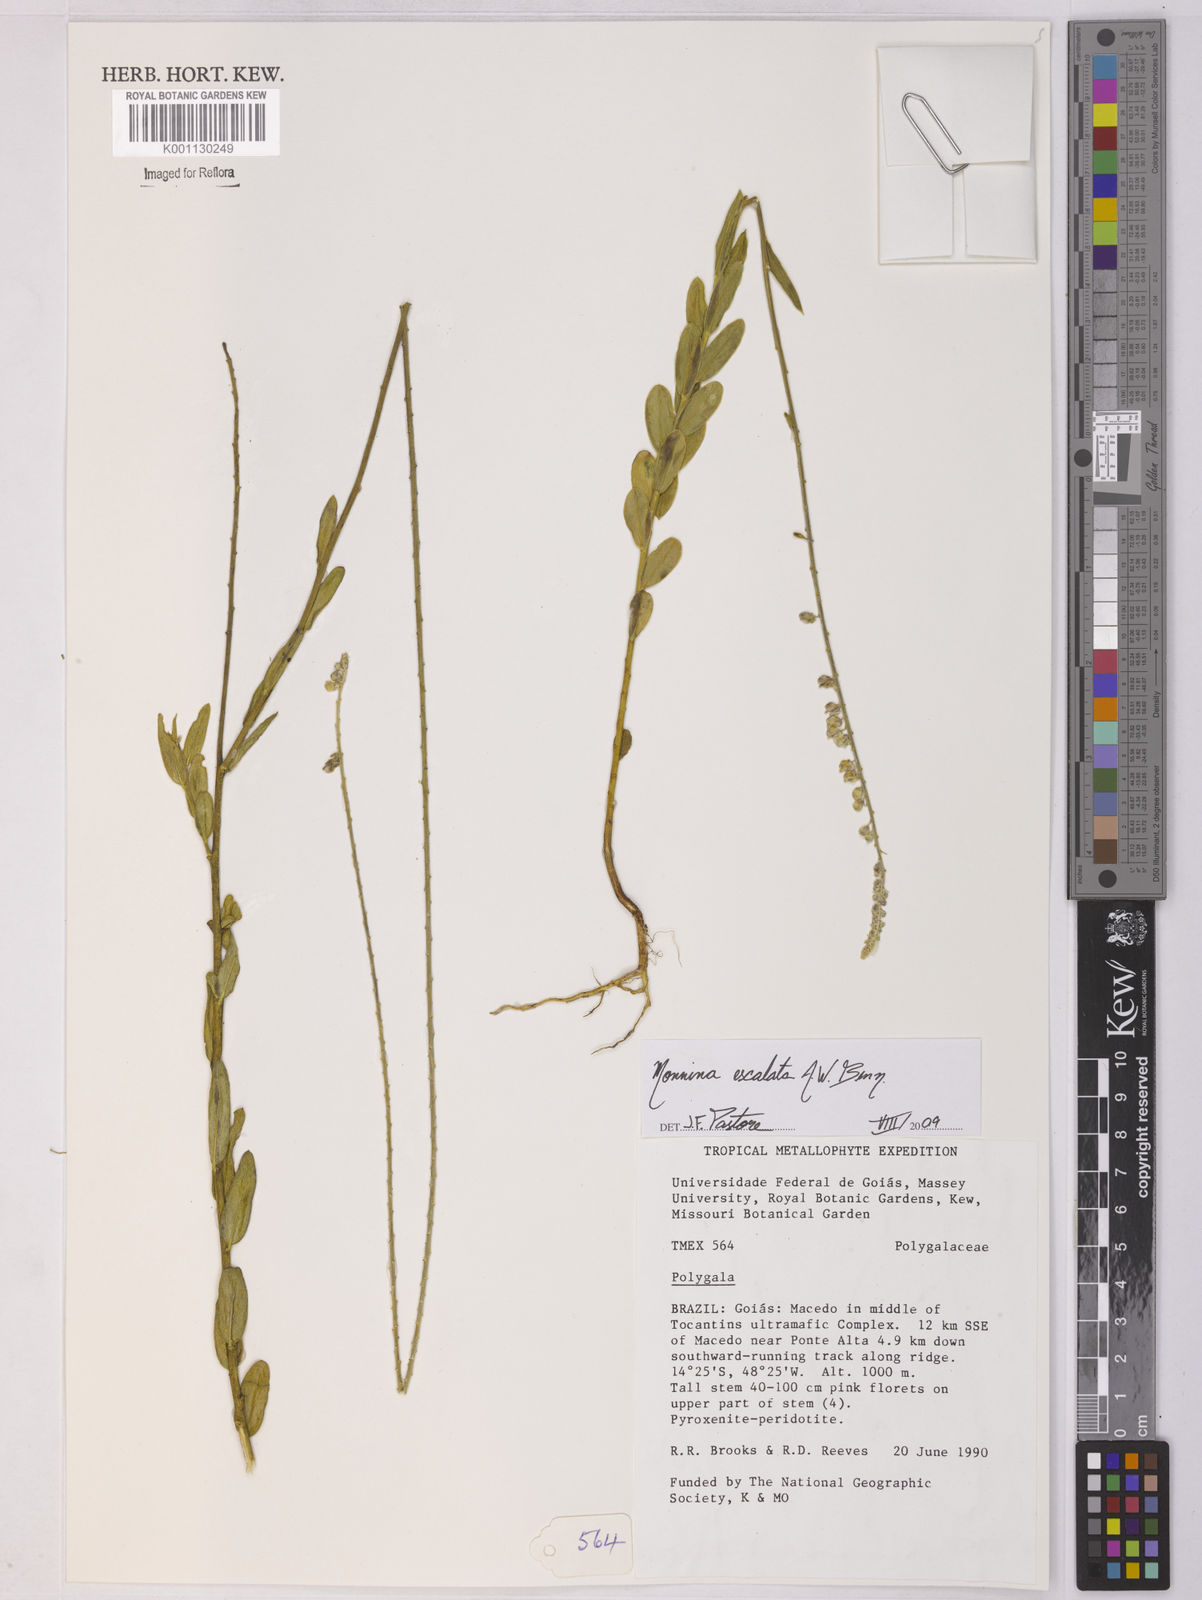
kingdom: Plantae
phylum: Tracheophyta
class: Magnoliopsida
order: Fabales
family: Polygalaceae
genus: Monnina
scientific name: Monnina exalata
